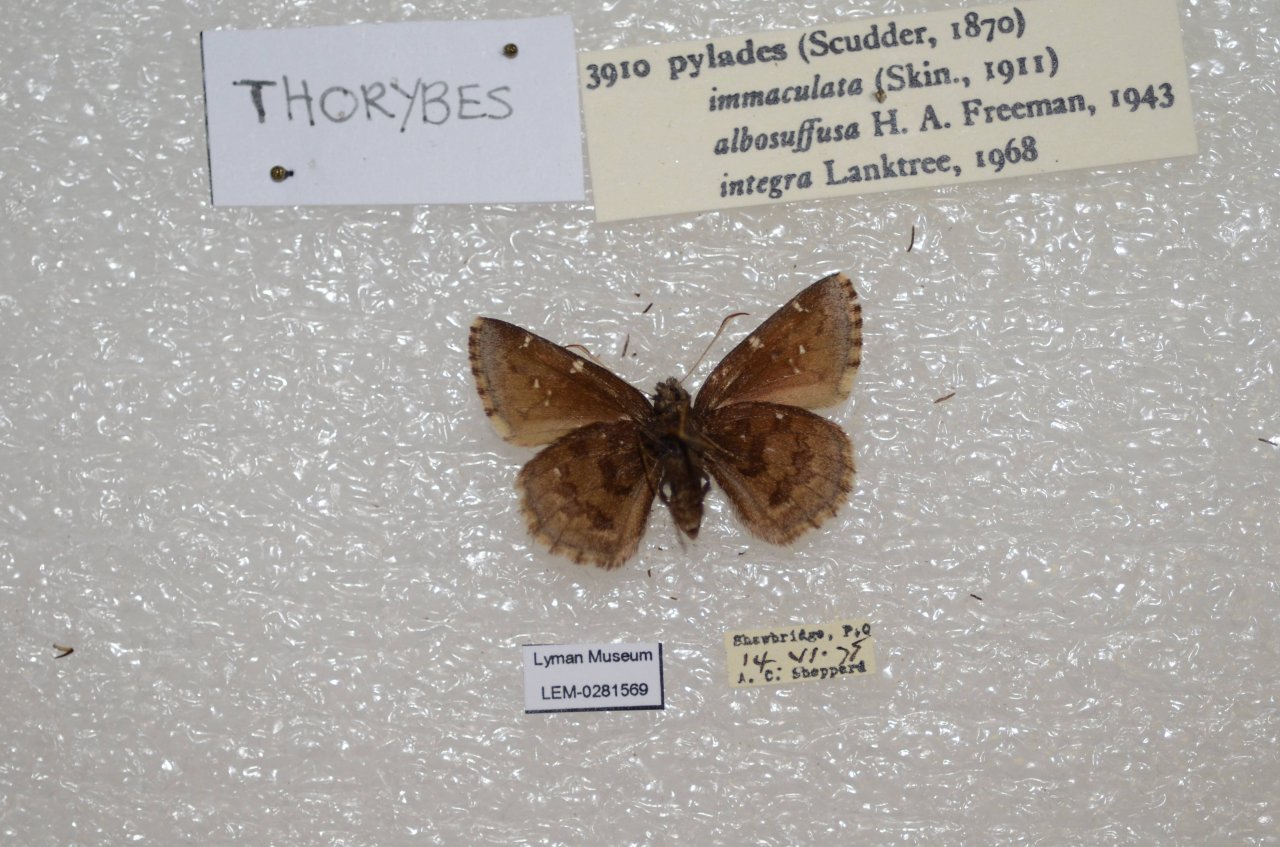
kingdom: Animalia
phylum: Arthropoda
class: Insecta
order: Lepidoptera
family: Hesperiidae
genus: Autochton
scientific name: Autochton
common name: Northern Cloudywing
